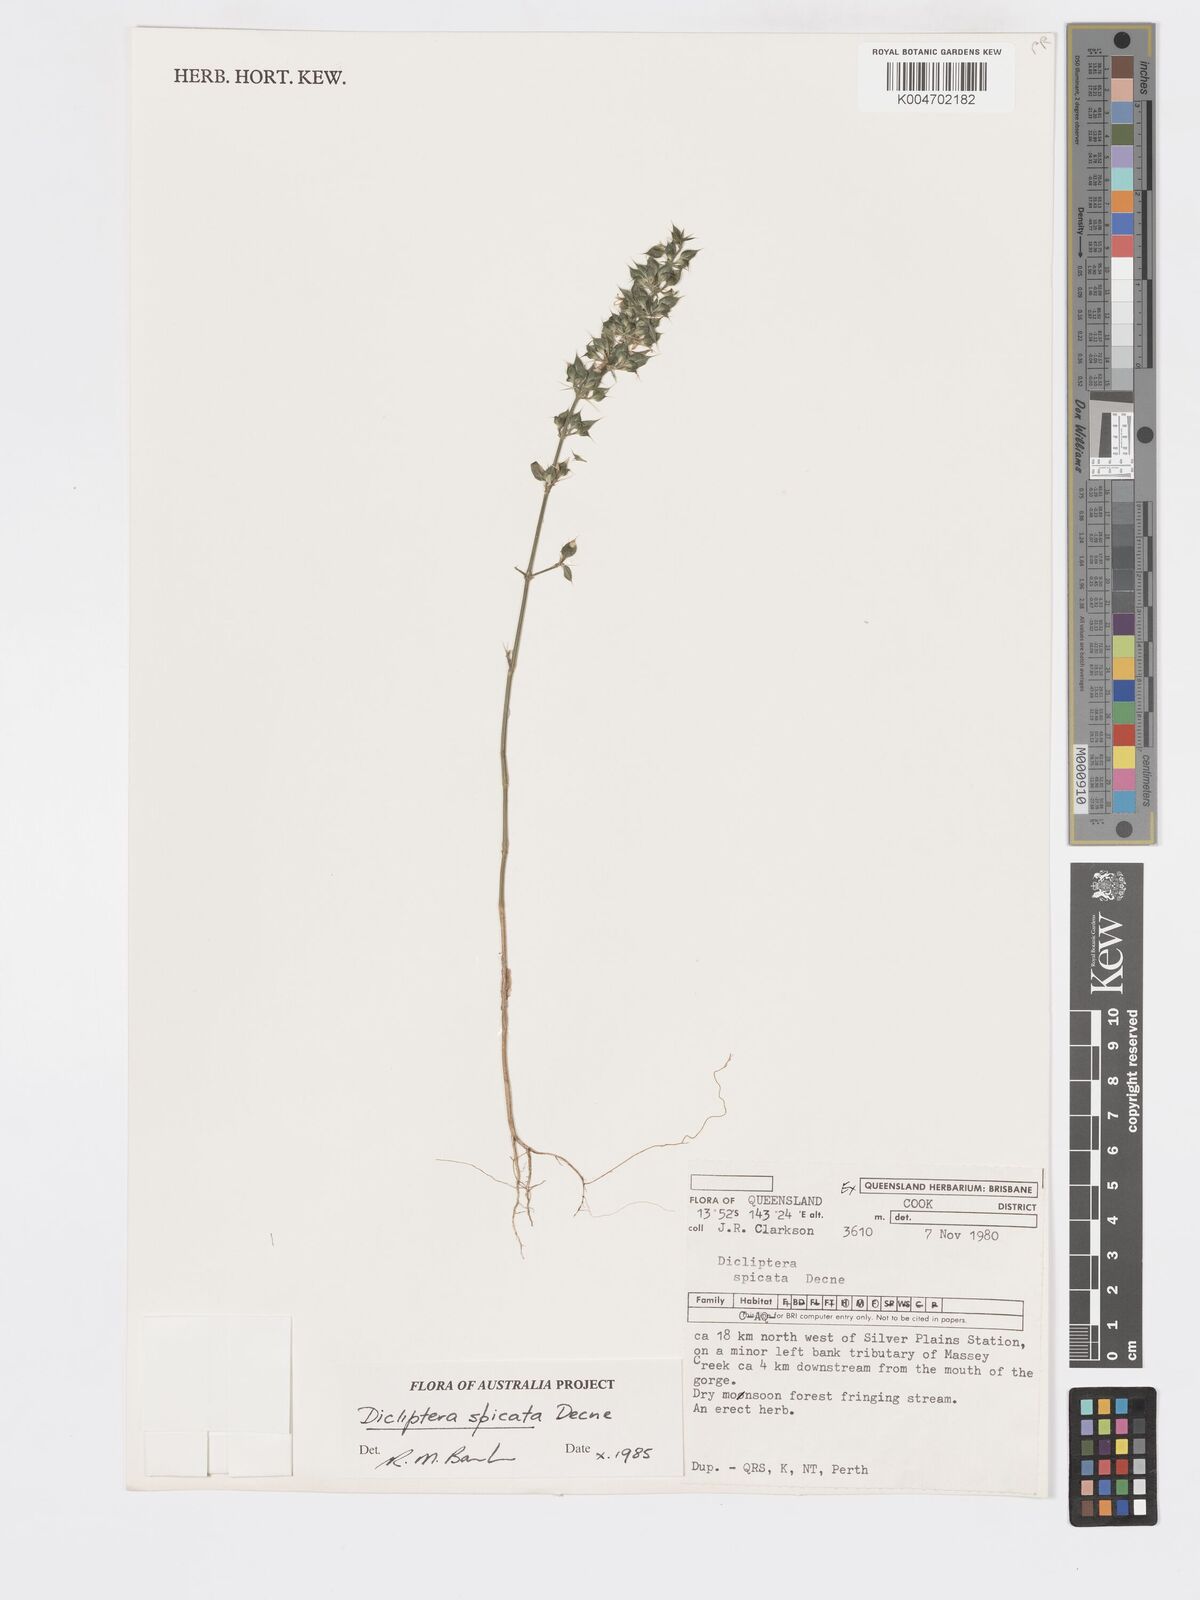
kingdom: Plantae
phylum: Tracheophyta
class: Magnoliopsida
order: Lamiales
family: Acanthaceae
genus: Dicliptera
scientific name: Dicliptera
